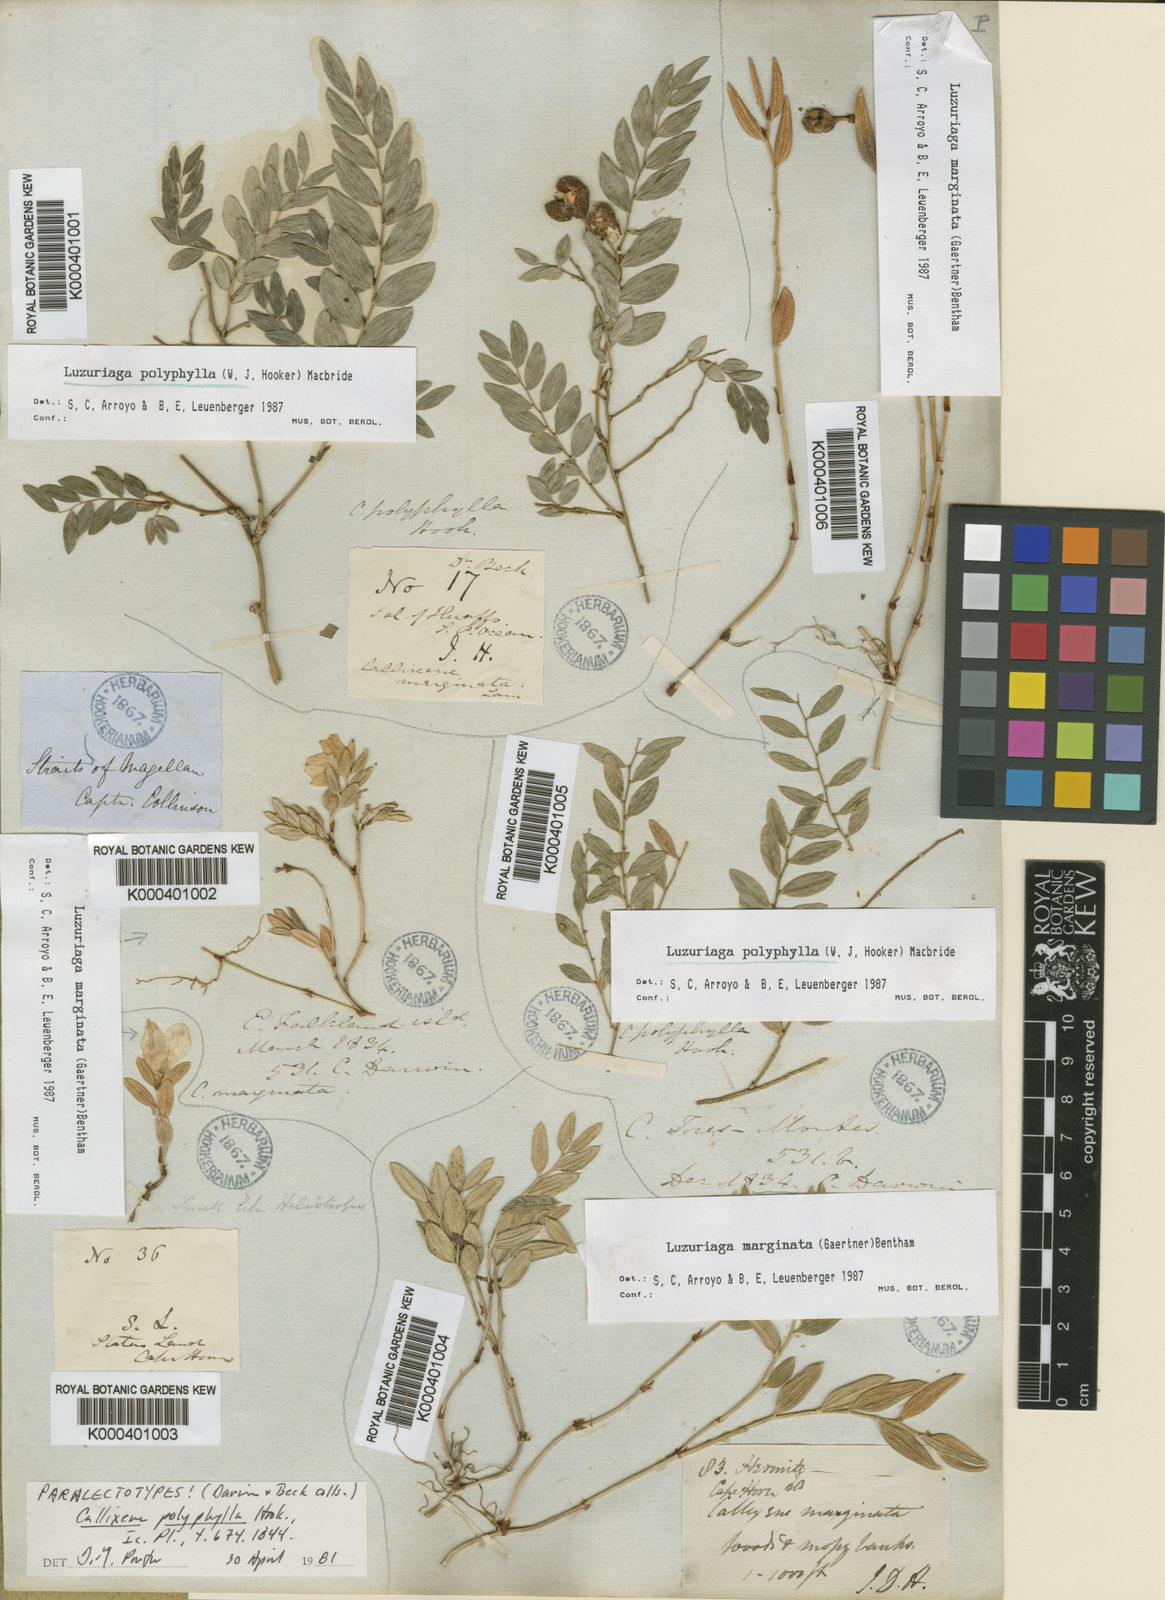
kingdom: Plantae
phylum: Tracheophyta
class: Liliopsida
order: Liliales
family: Alstroemeriaceae
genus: Luzuriaga
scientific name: Luzuriaga polyphylla
